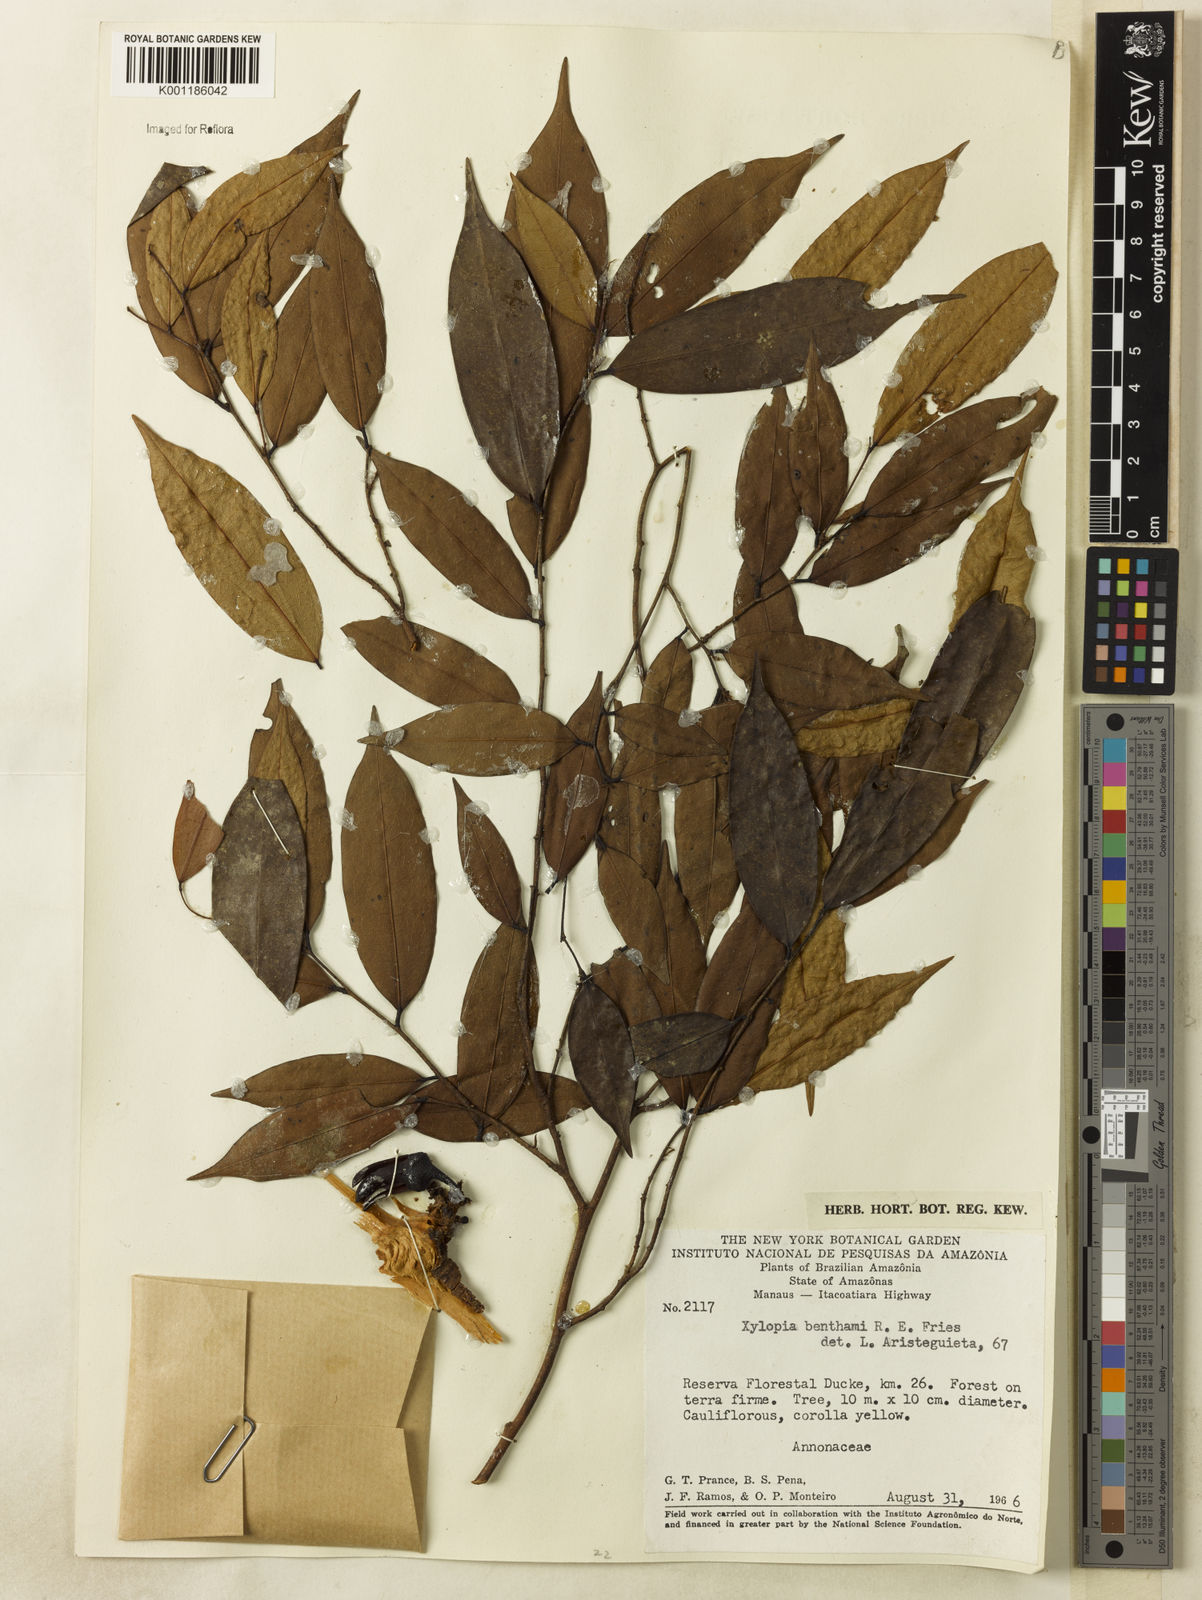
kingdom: Plantae
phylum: Tracheophyta
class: Magnoliopsida
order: Magnoliales
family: Annonaceae
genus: Xylopia
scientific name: Xylopia benthamii
